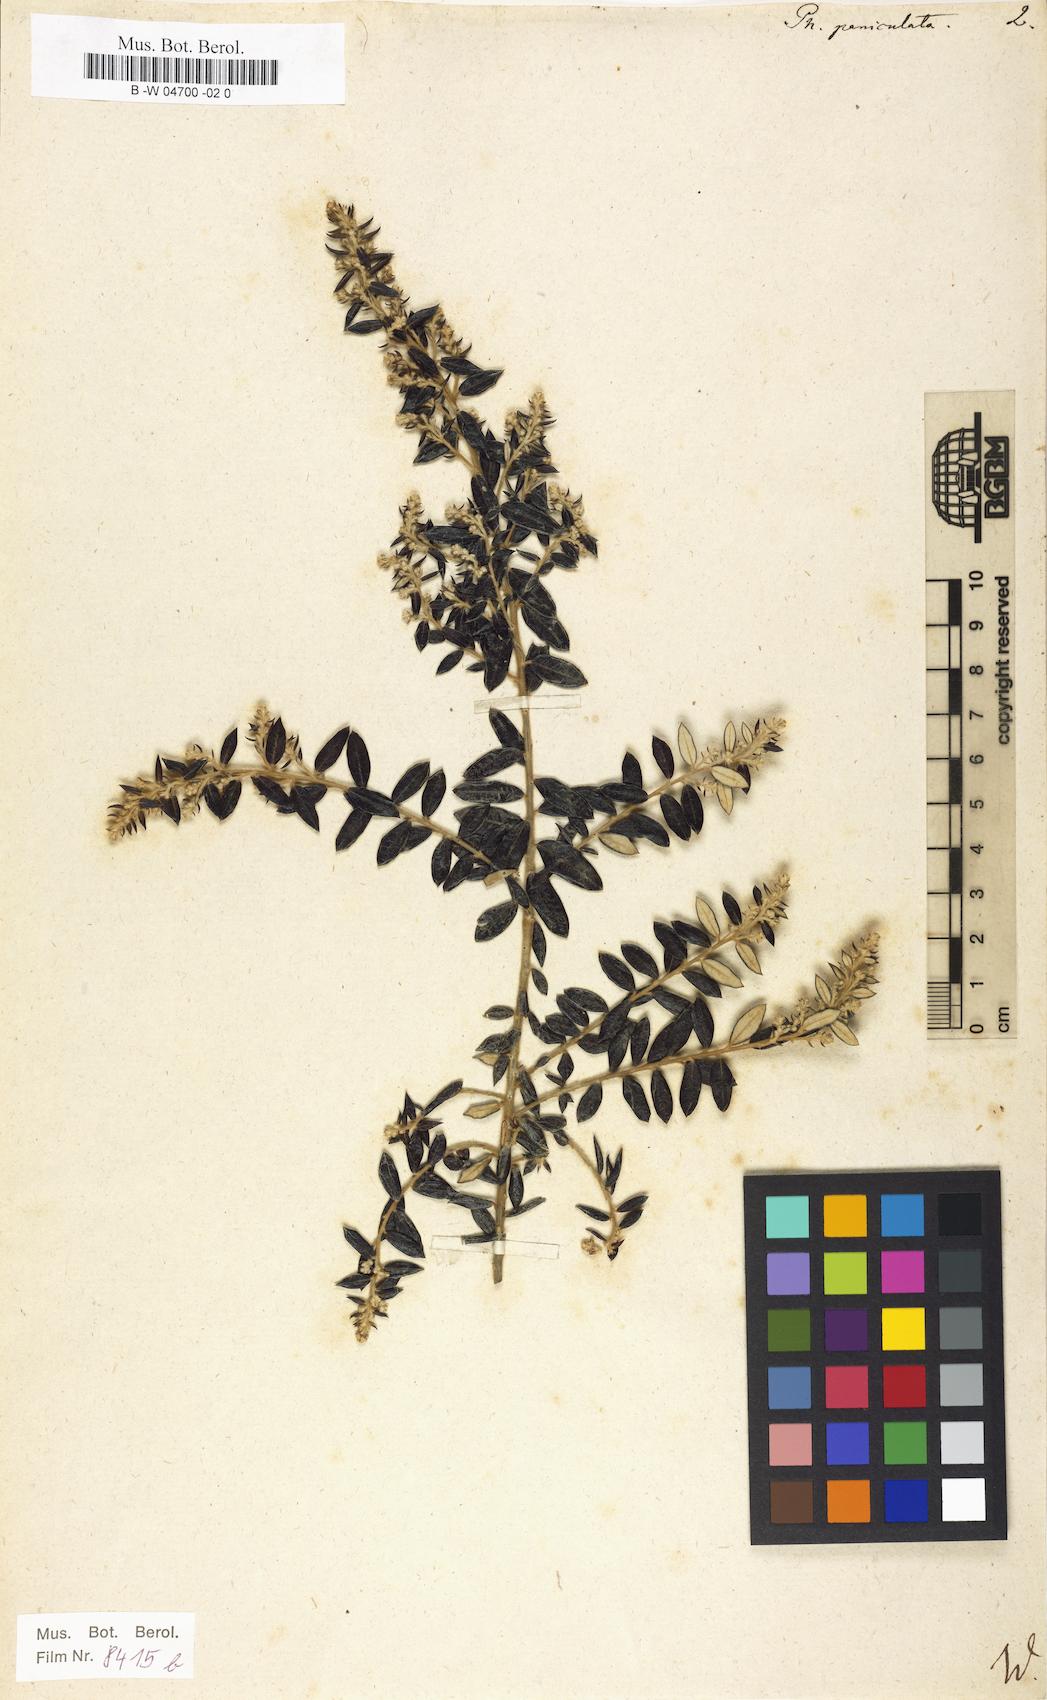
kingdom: Plantae
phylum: Tracheophyta
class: Magnoliopsida
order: Rosales
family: Rhamnaceae
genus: Phylica
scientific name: Phylica paniculata
